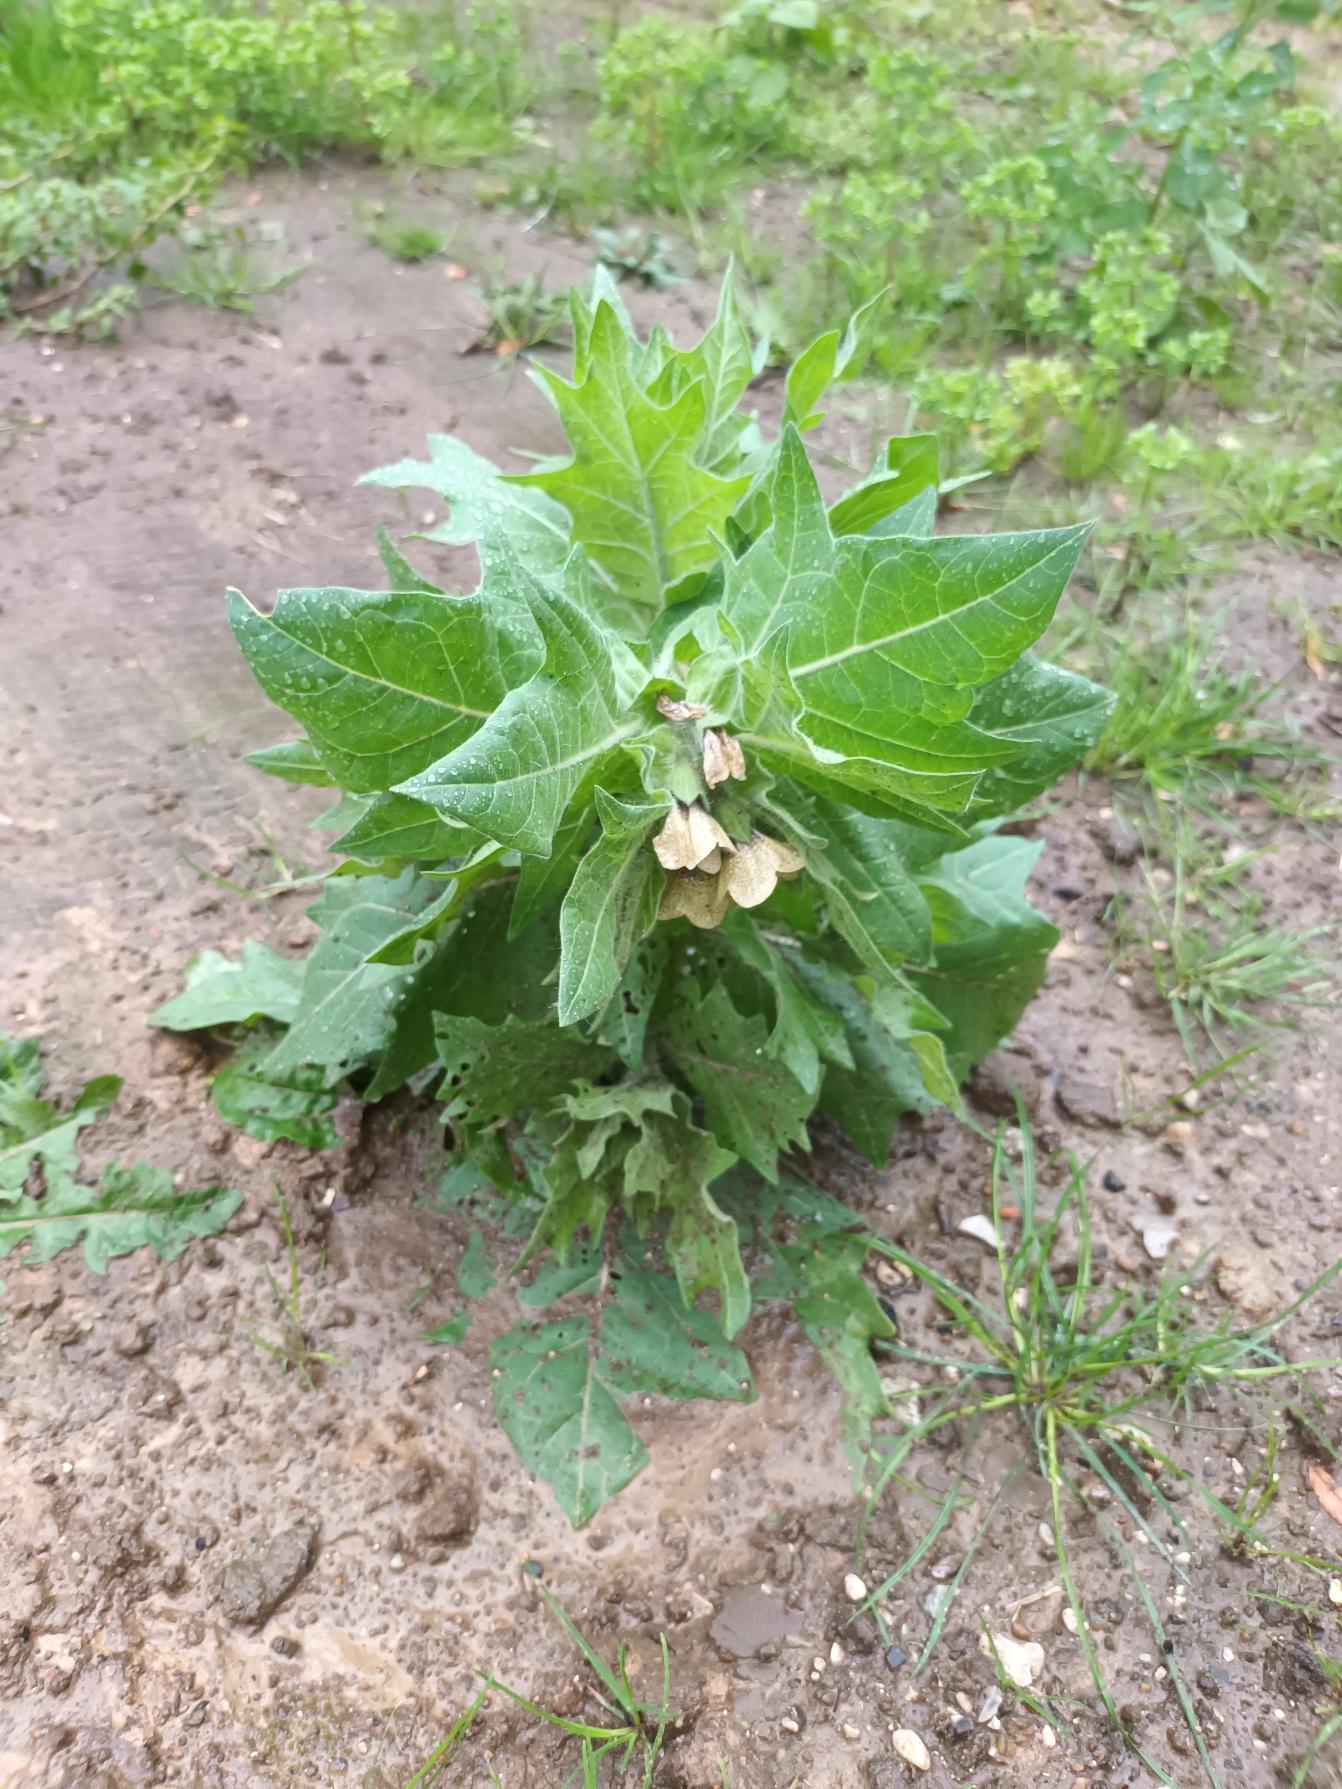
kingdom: Plantae
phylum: Tracheophyta
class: Magnoliopsida
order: Solanales
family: Solanaceae
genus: Hyoscyamus
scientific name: Hyoscyamus niger
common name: Bulmeurt
